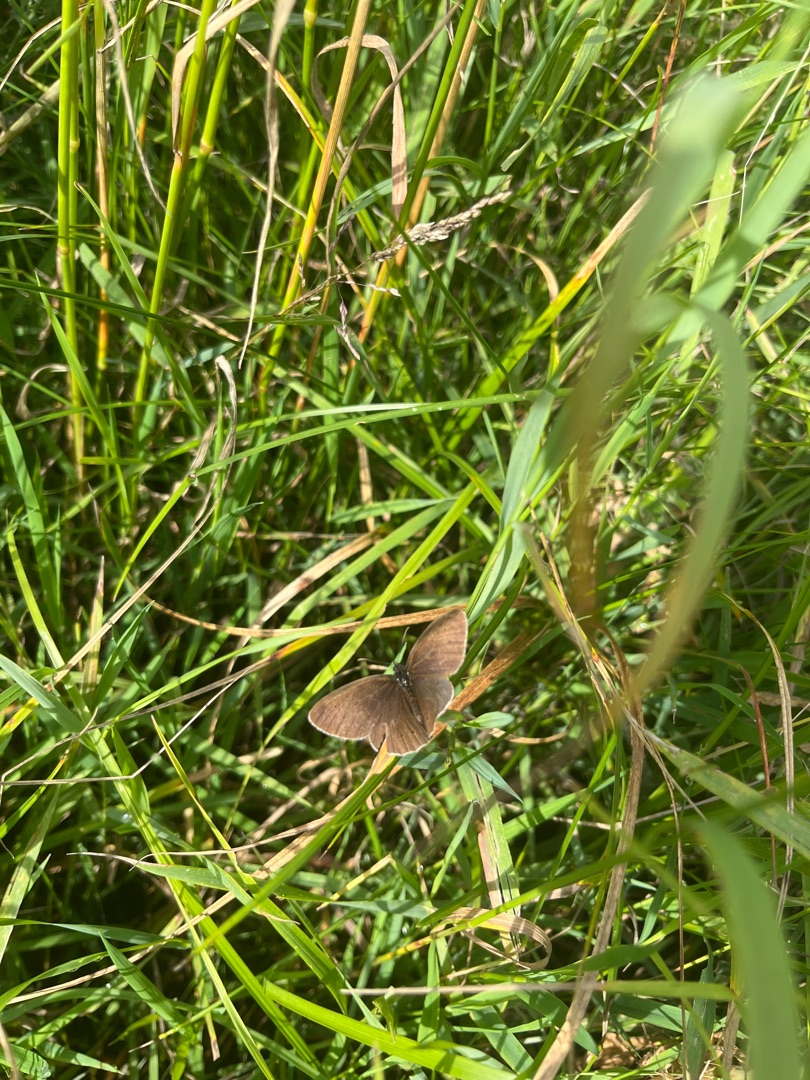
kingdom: Animalia
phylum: Arthropoda
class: Insecta
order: Lepidoptera
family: Nymphalidae
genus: Aphantopus
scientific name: Aphantopus hyperantus
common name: Engrandøje
